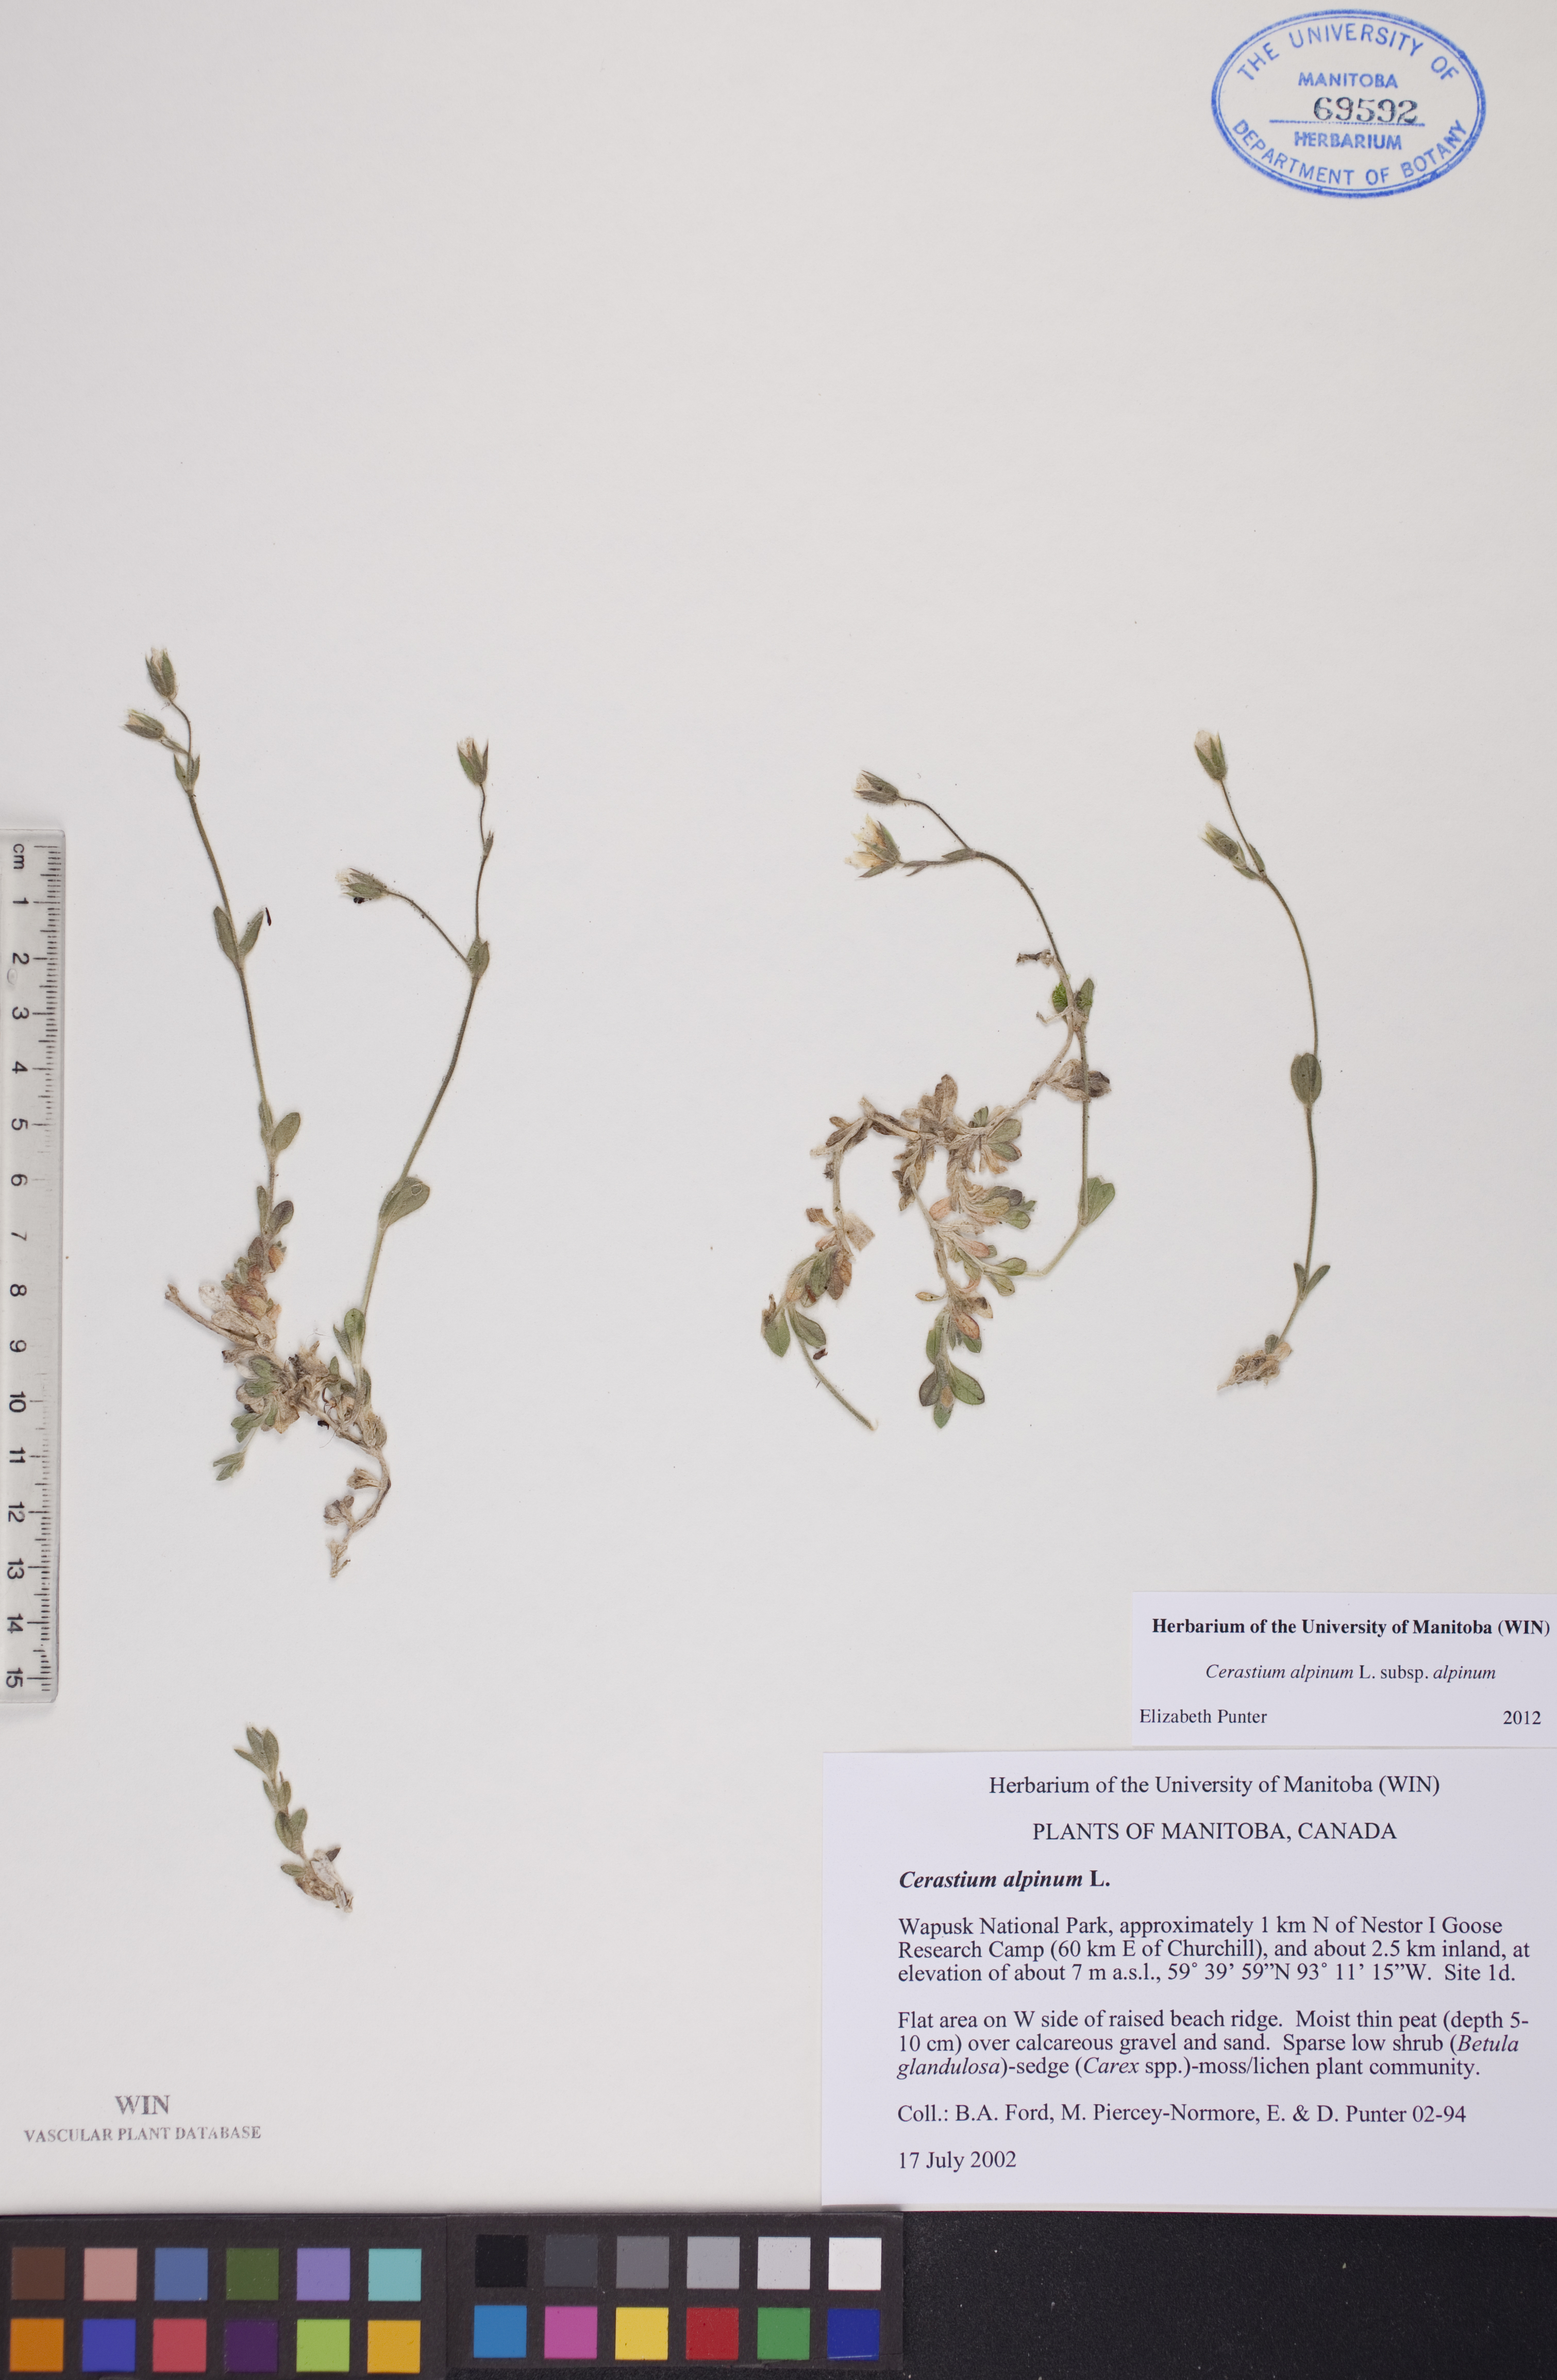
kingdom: Plantae
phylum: Tracheophyta
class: Magnoliopsida
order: Caryophyllales
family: Caryophyllaceae
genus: Cerastium
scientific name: Cerastium alpinum
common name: Alpine mouse-ear
